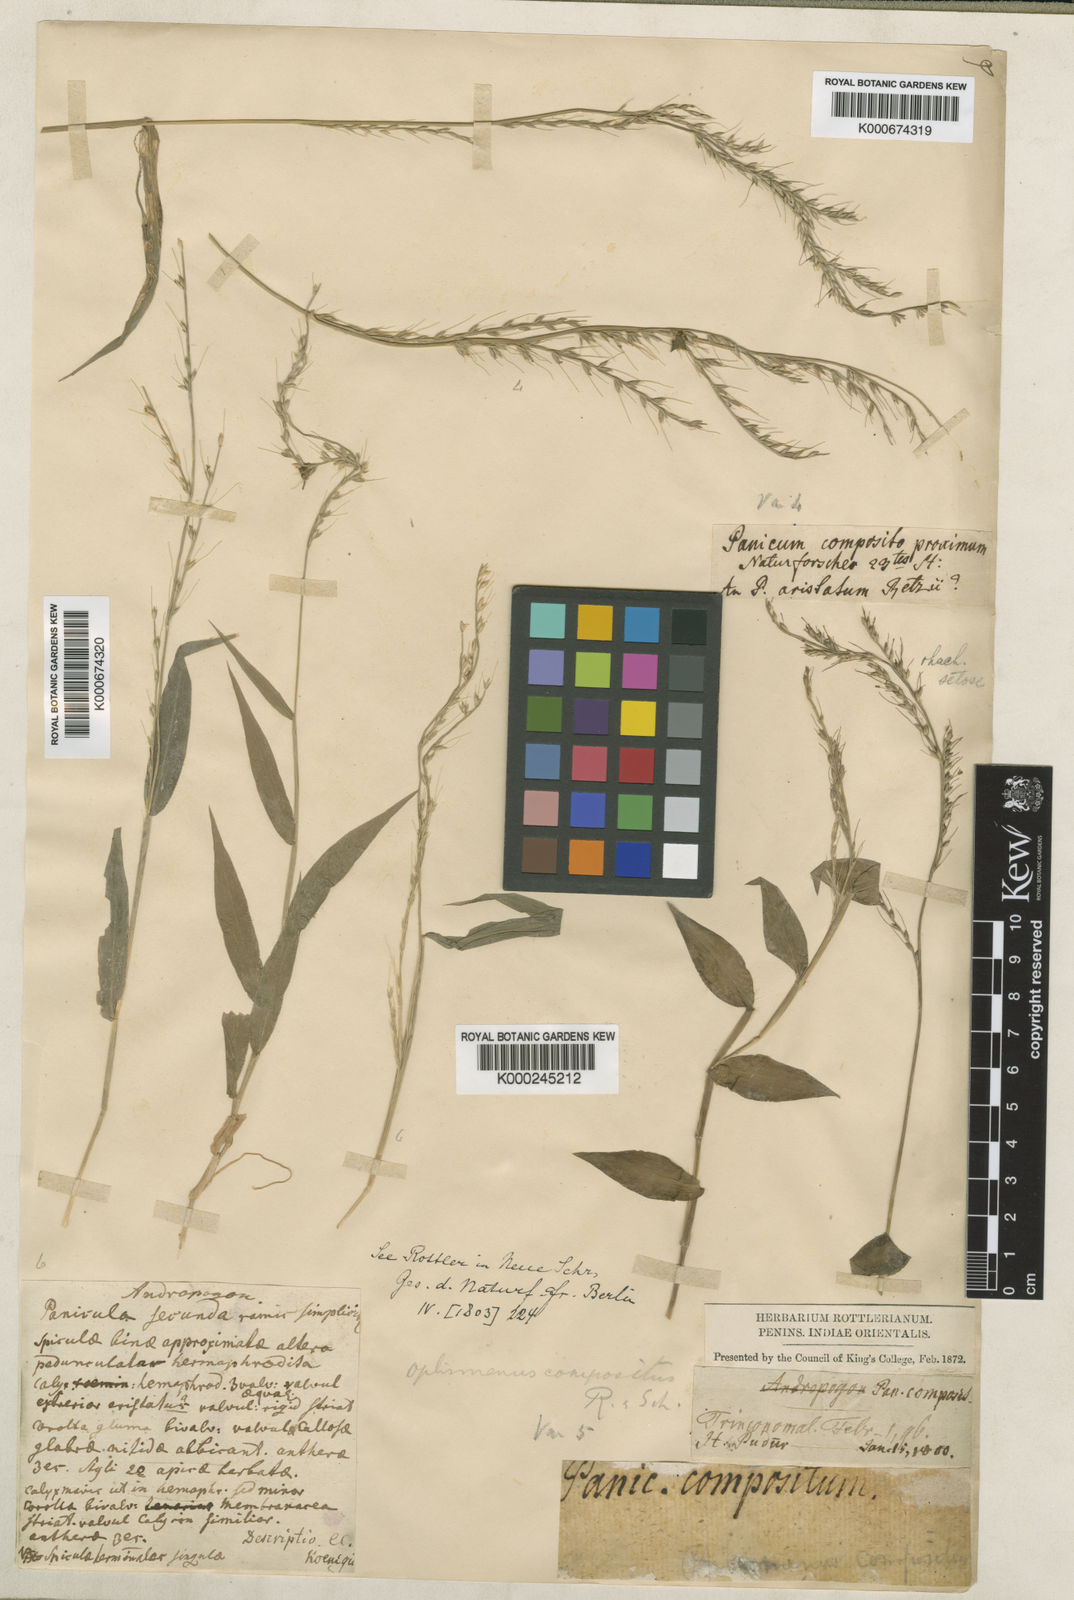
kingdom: Plantae
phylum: Tracheophyta
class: Liliopsida
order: Poales
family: Poaceae
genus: Oplismenus
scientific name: Oplismenus compositus
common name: Running mountain grass
